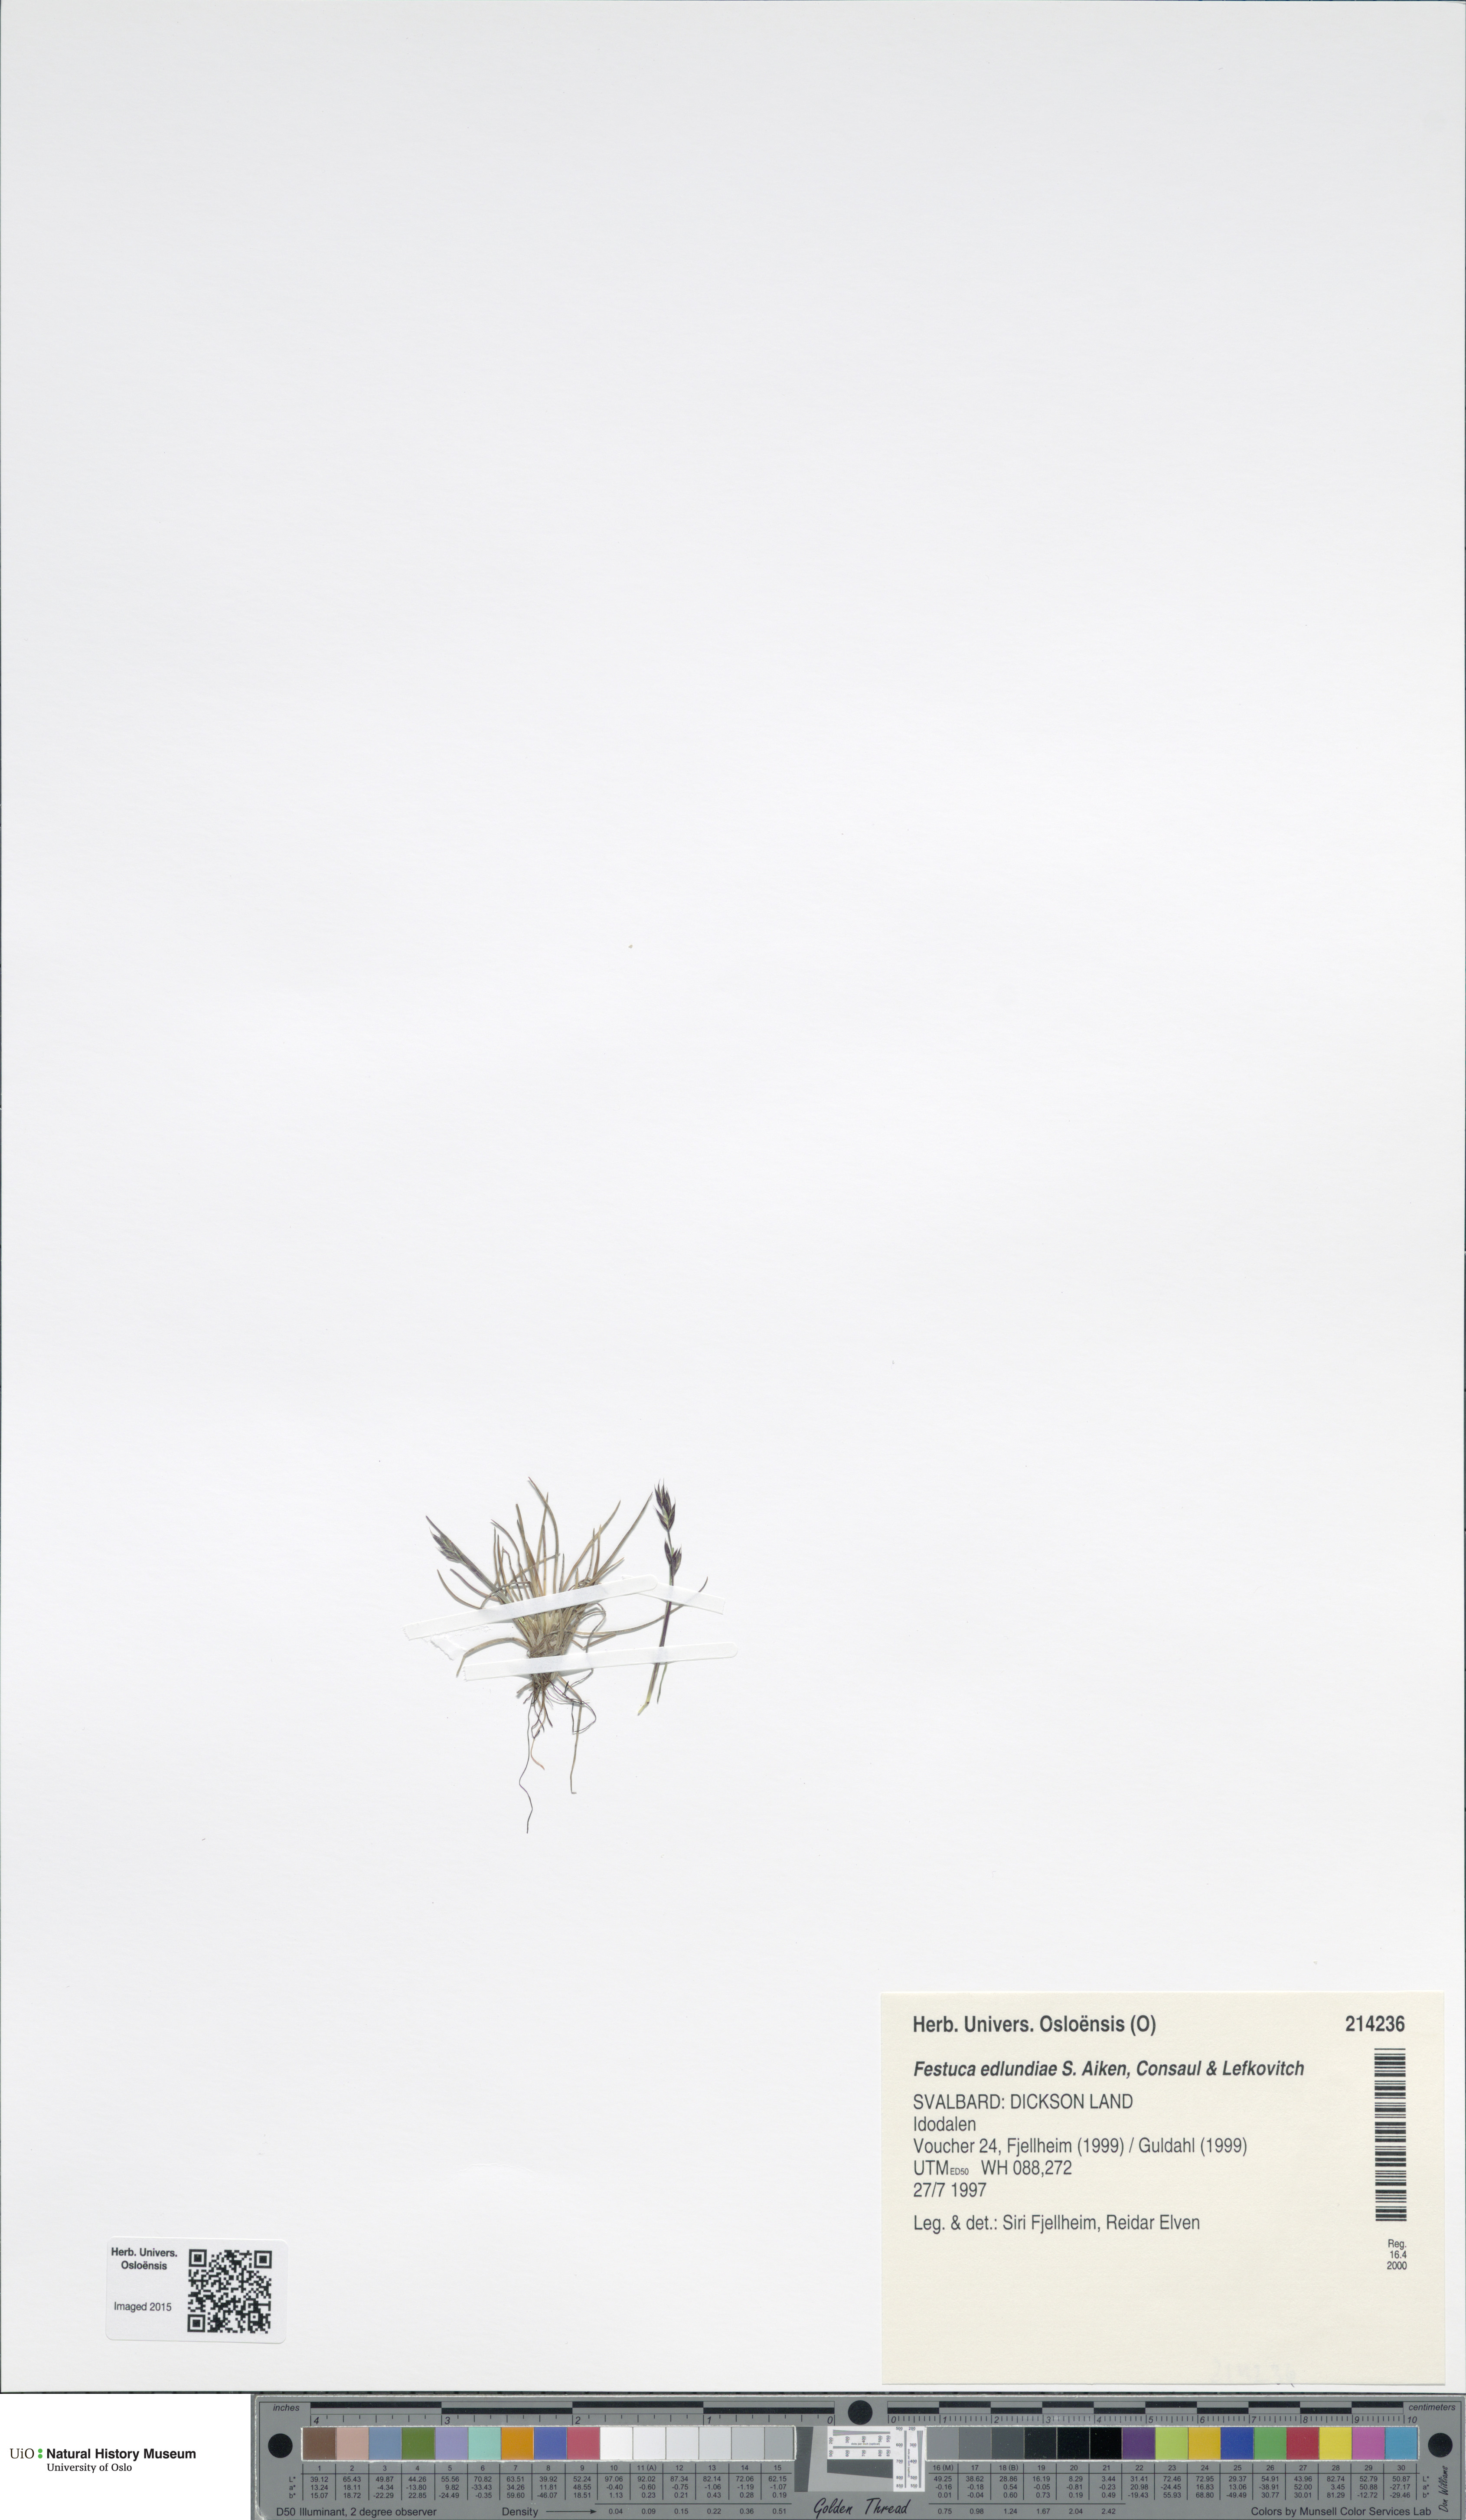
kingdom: Plantae
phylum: Tracheophyta
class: Liliopsida
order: Poales
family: Poaceae
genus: Festuca
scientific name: Festuca edlundiae
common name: Edlund's fescue
